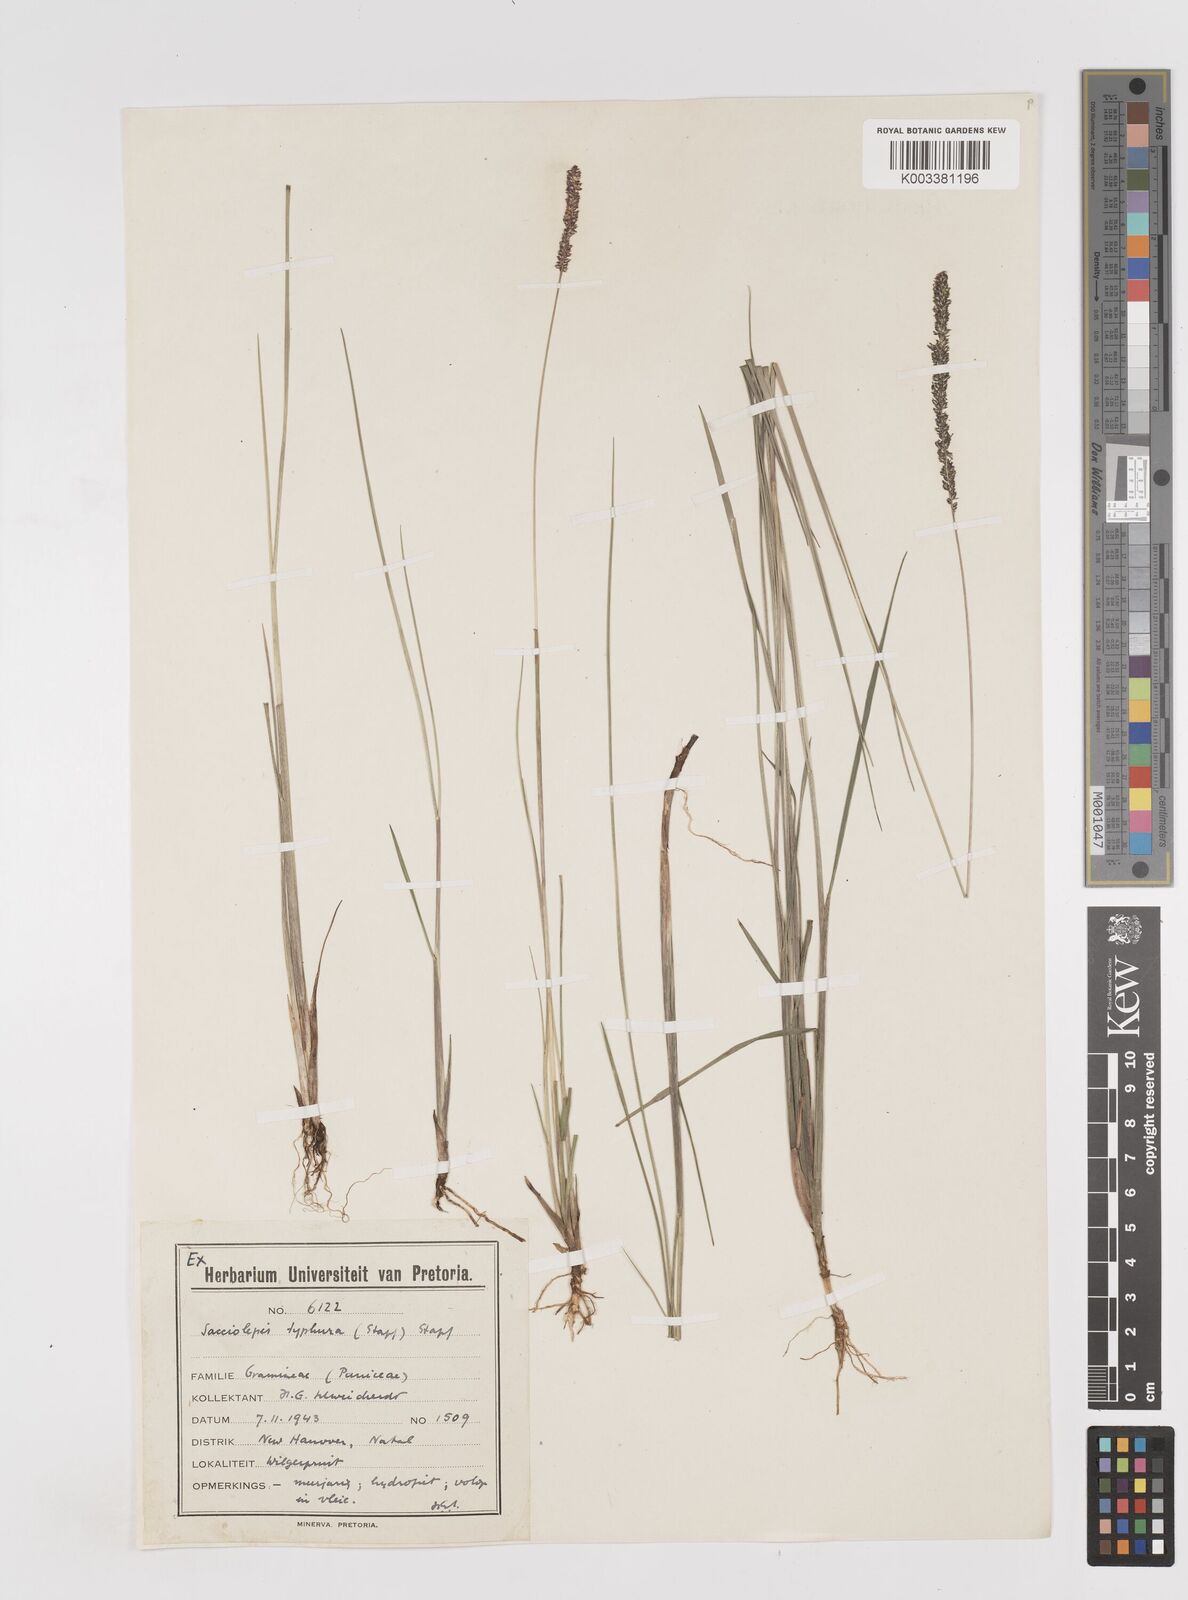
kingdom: Plantae
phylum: Tracheophyta
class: Liliopsida
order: Poales
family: Poaceae
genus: Sacciolepis
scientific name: Sacciolepis chevalieri
